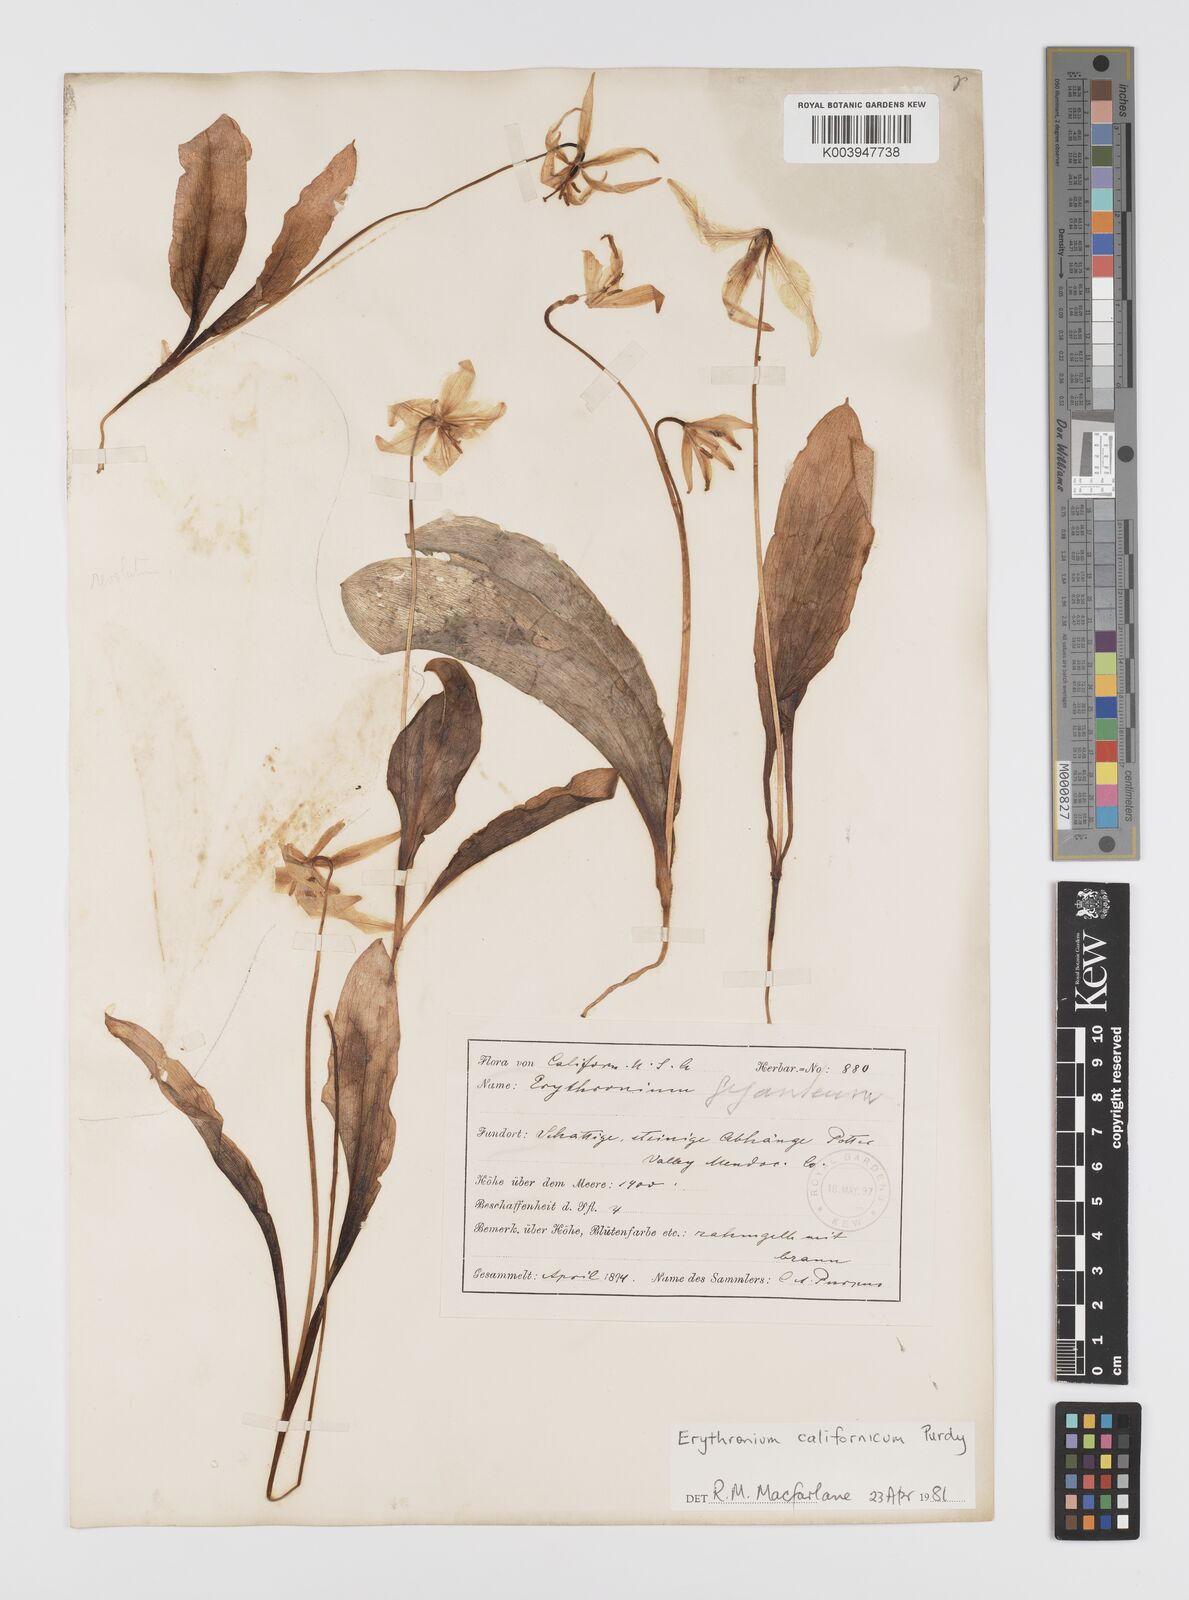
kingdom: Plantae
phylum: Tracheophyta
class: Liliopsida
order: Liliales
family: Liliaceae
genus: Erythronium
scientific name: Erythronium californicum
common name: Fawn-lily
